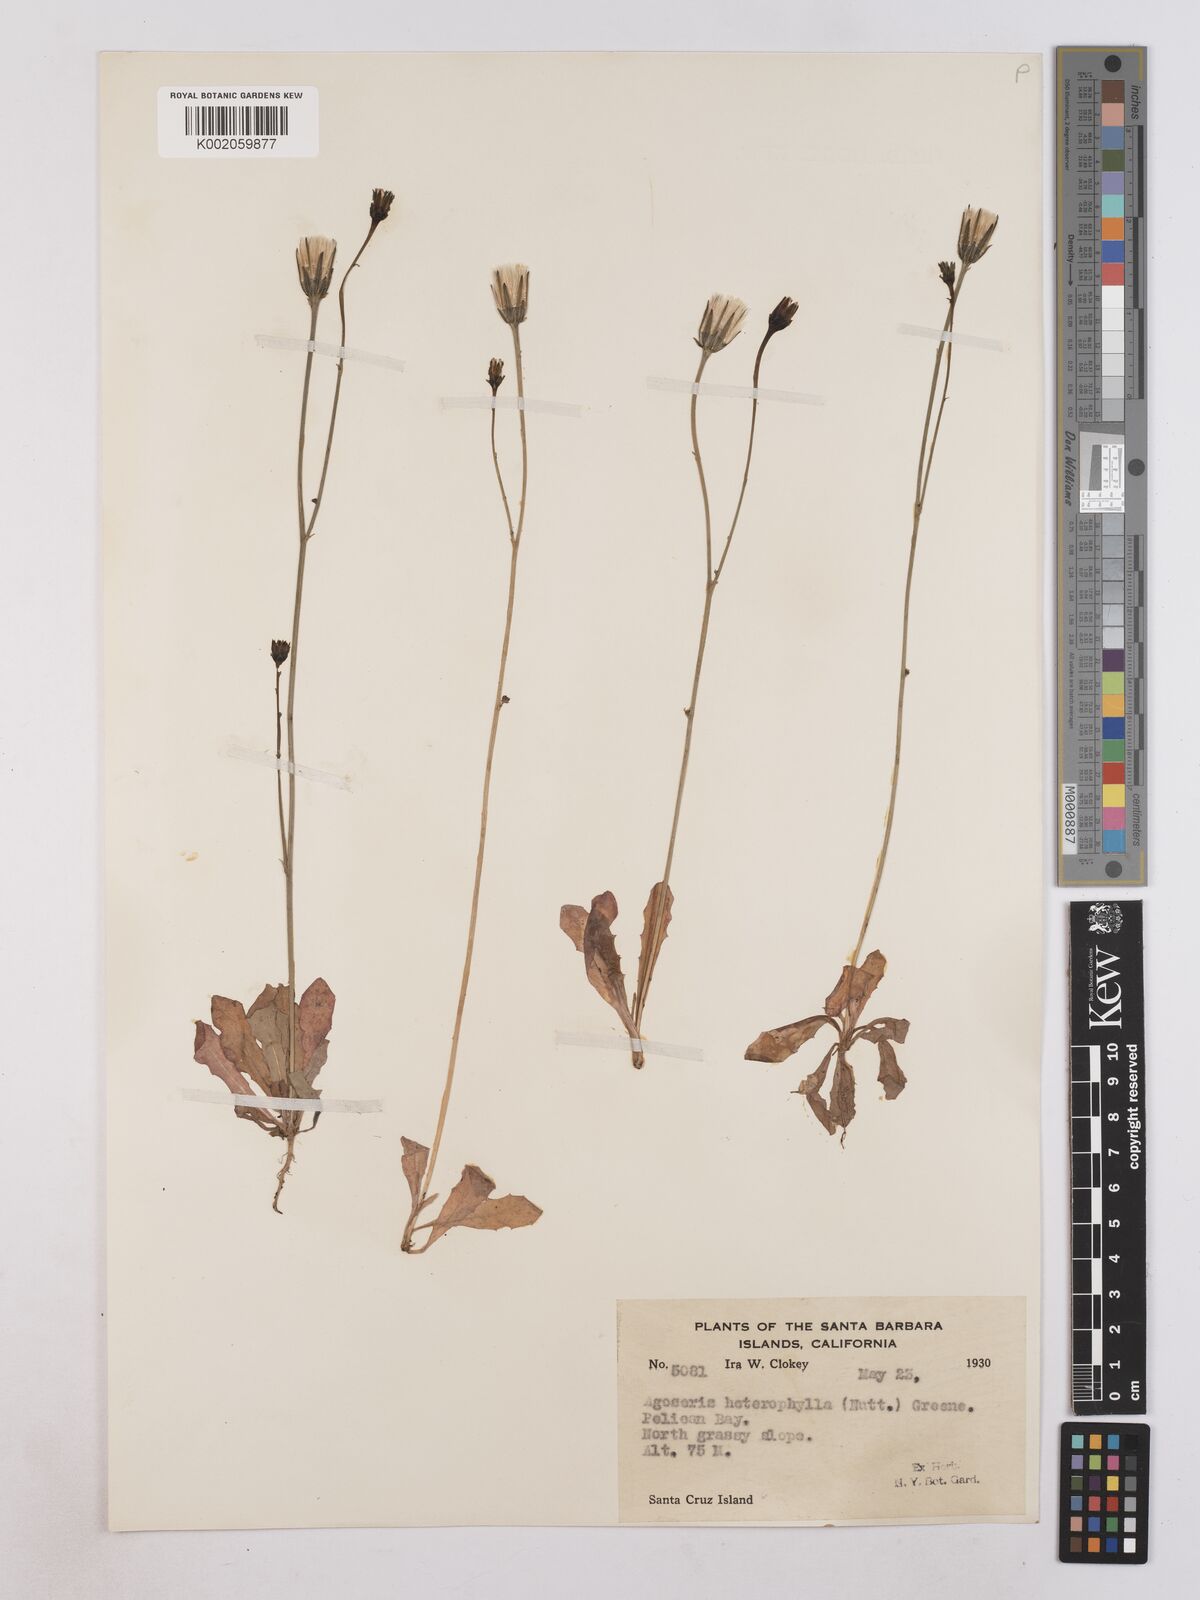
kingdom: Plantae
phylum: Tracheophyta
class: Magnoliopsida
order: Asterales
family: Asteraceae
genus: Agoseris
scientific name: Agoseris heterophylla
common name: Annual agoseris
